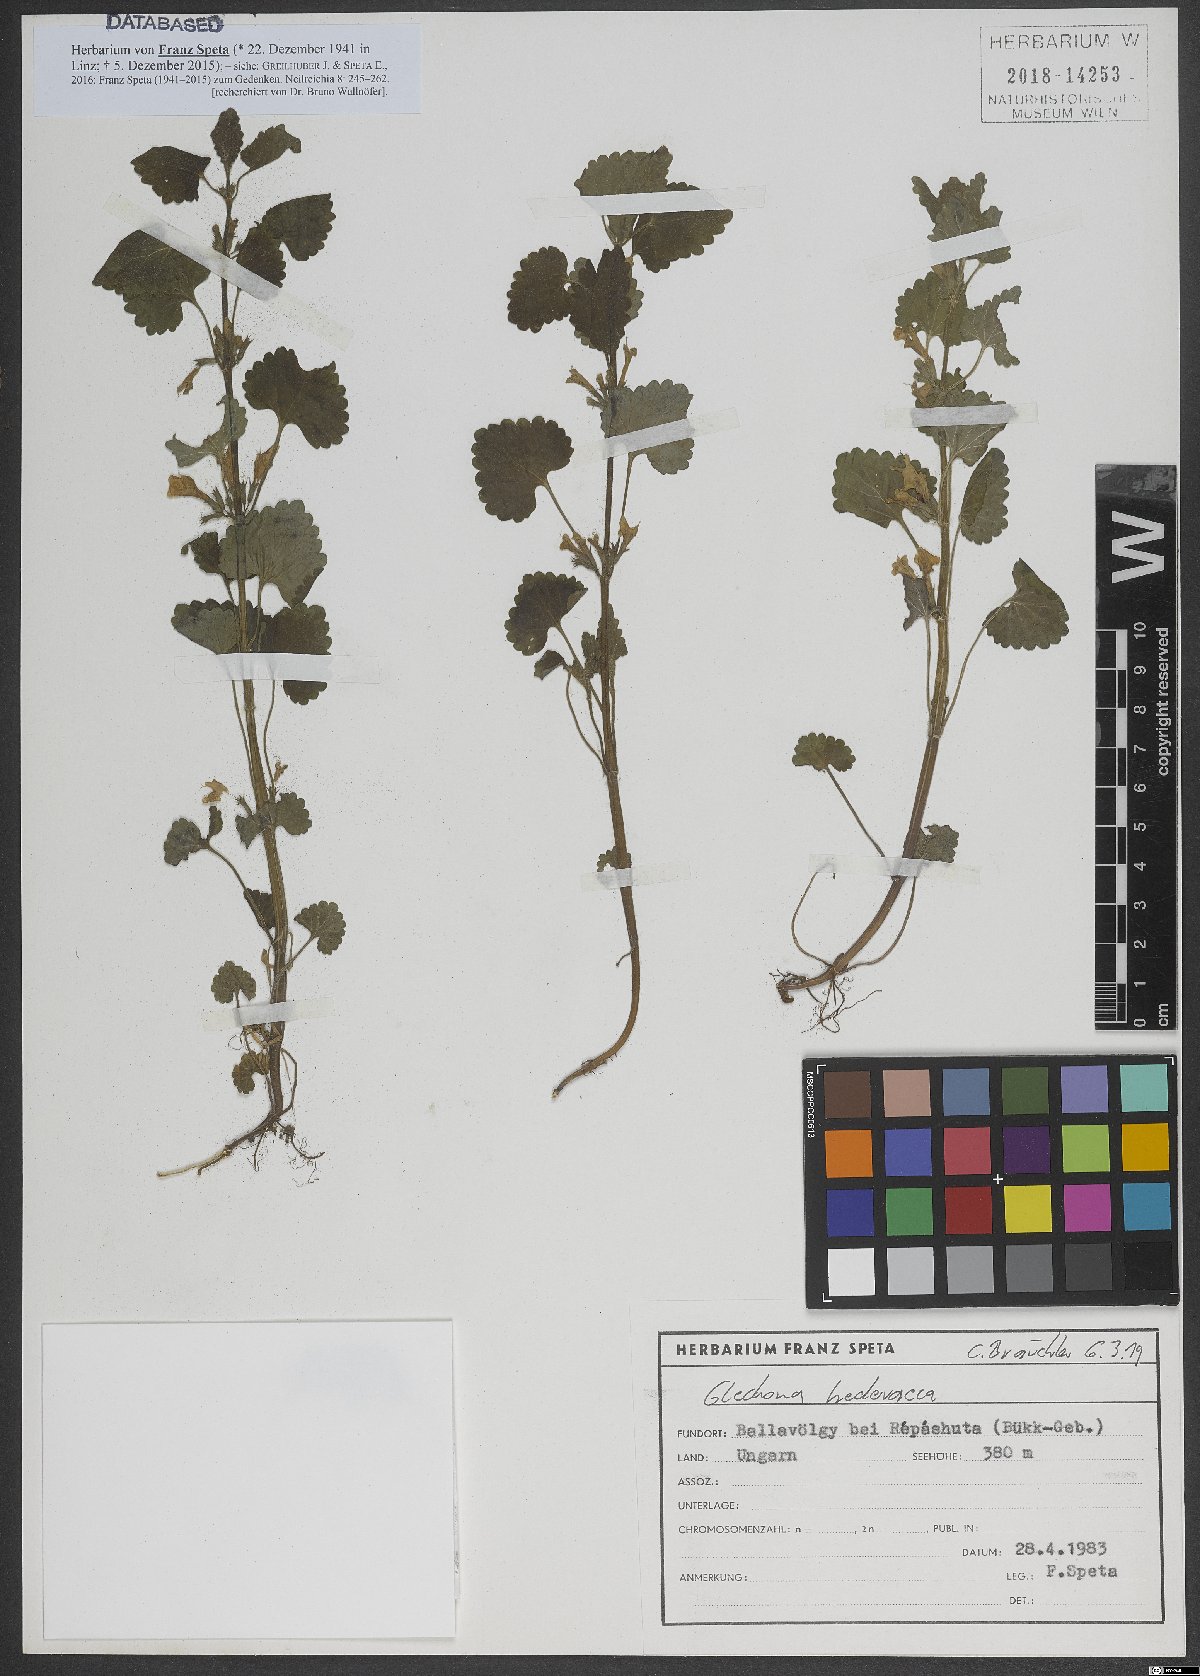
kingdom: Plantae
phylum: Tracheophyta
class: Magnoliopsida
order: Lamiales
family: Lamiaceae
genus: Glechoma
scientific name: Glechoma hederacea
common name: Ground ivy
